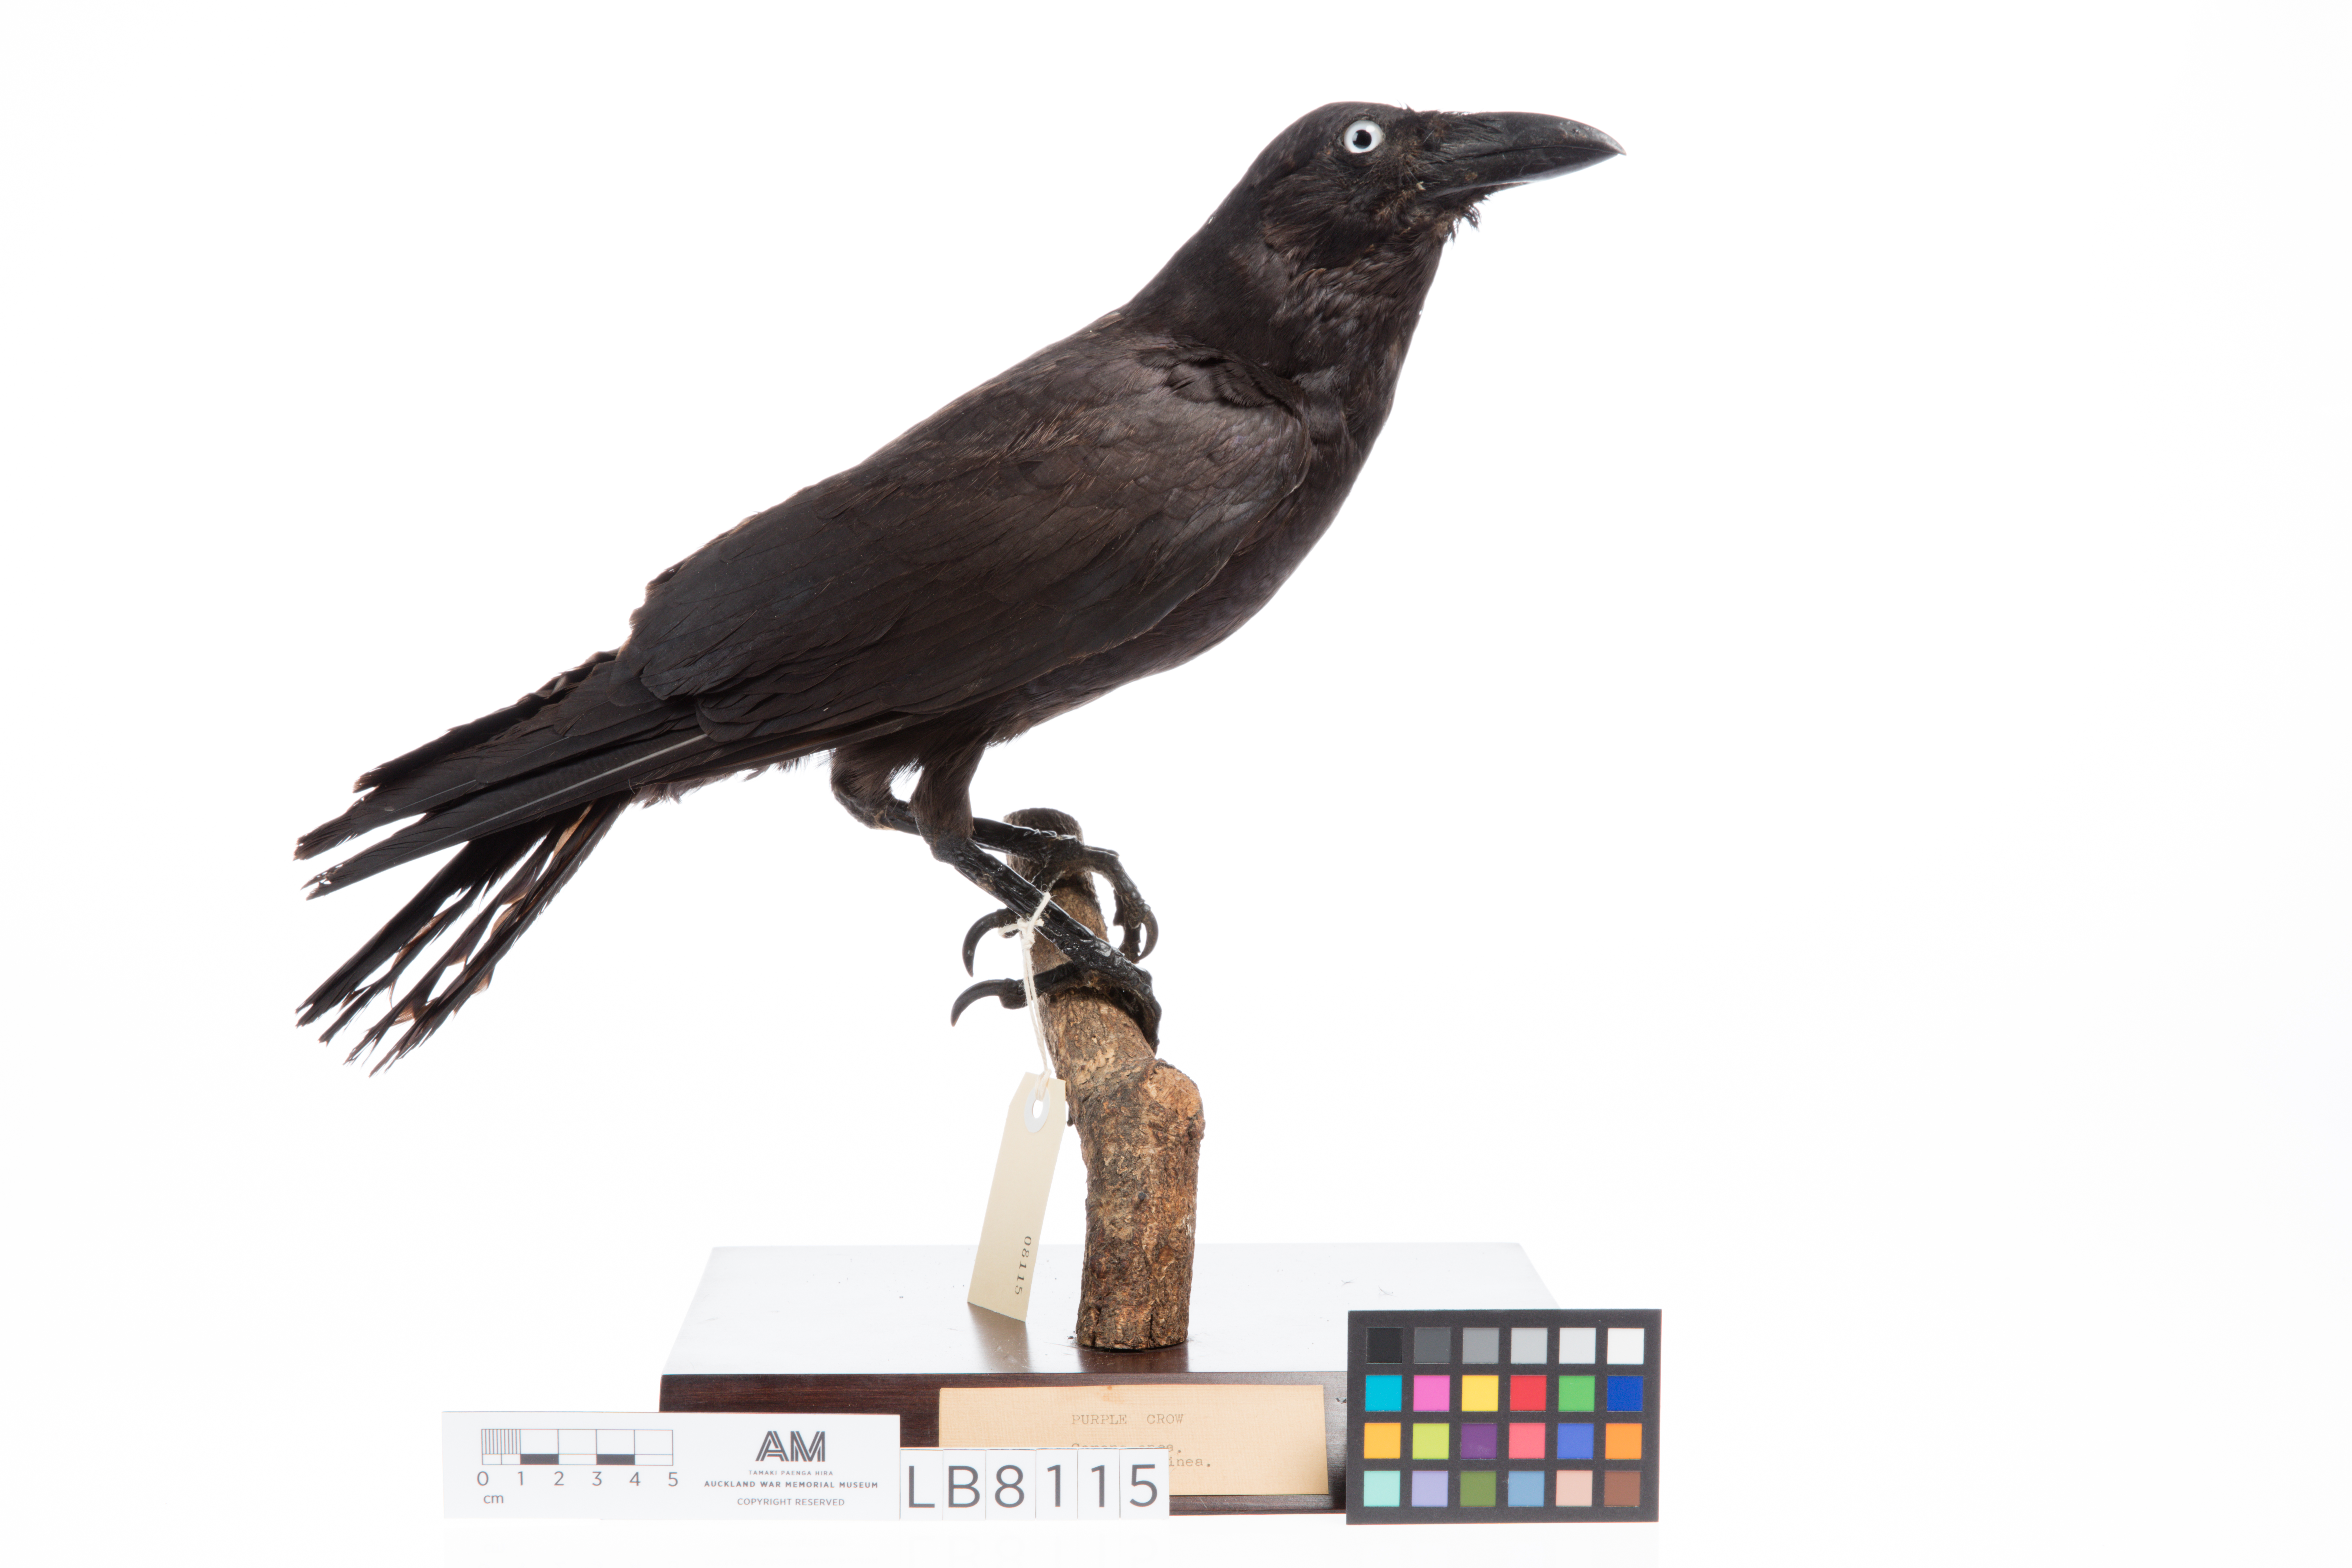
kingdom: Animalia
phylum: Chordata
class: Aves
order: Passeriformes
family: Corvidae
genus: Corvus
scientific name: Corvus orru
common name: Torresian crow
